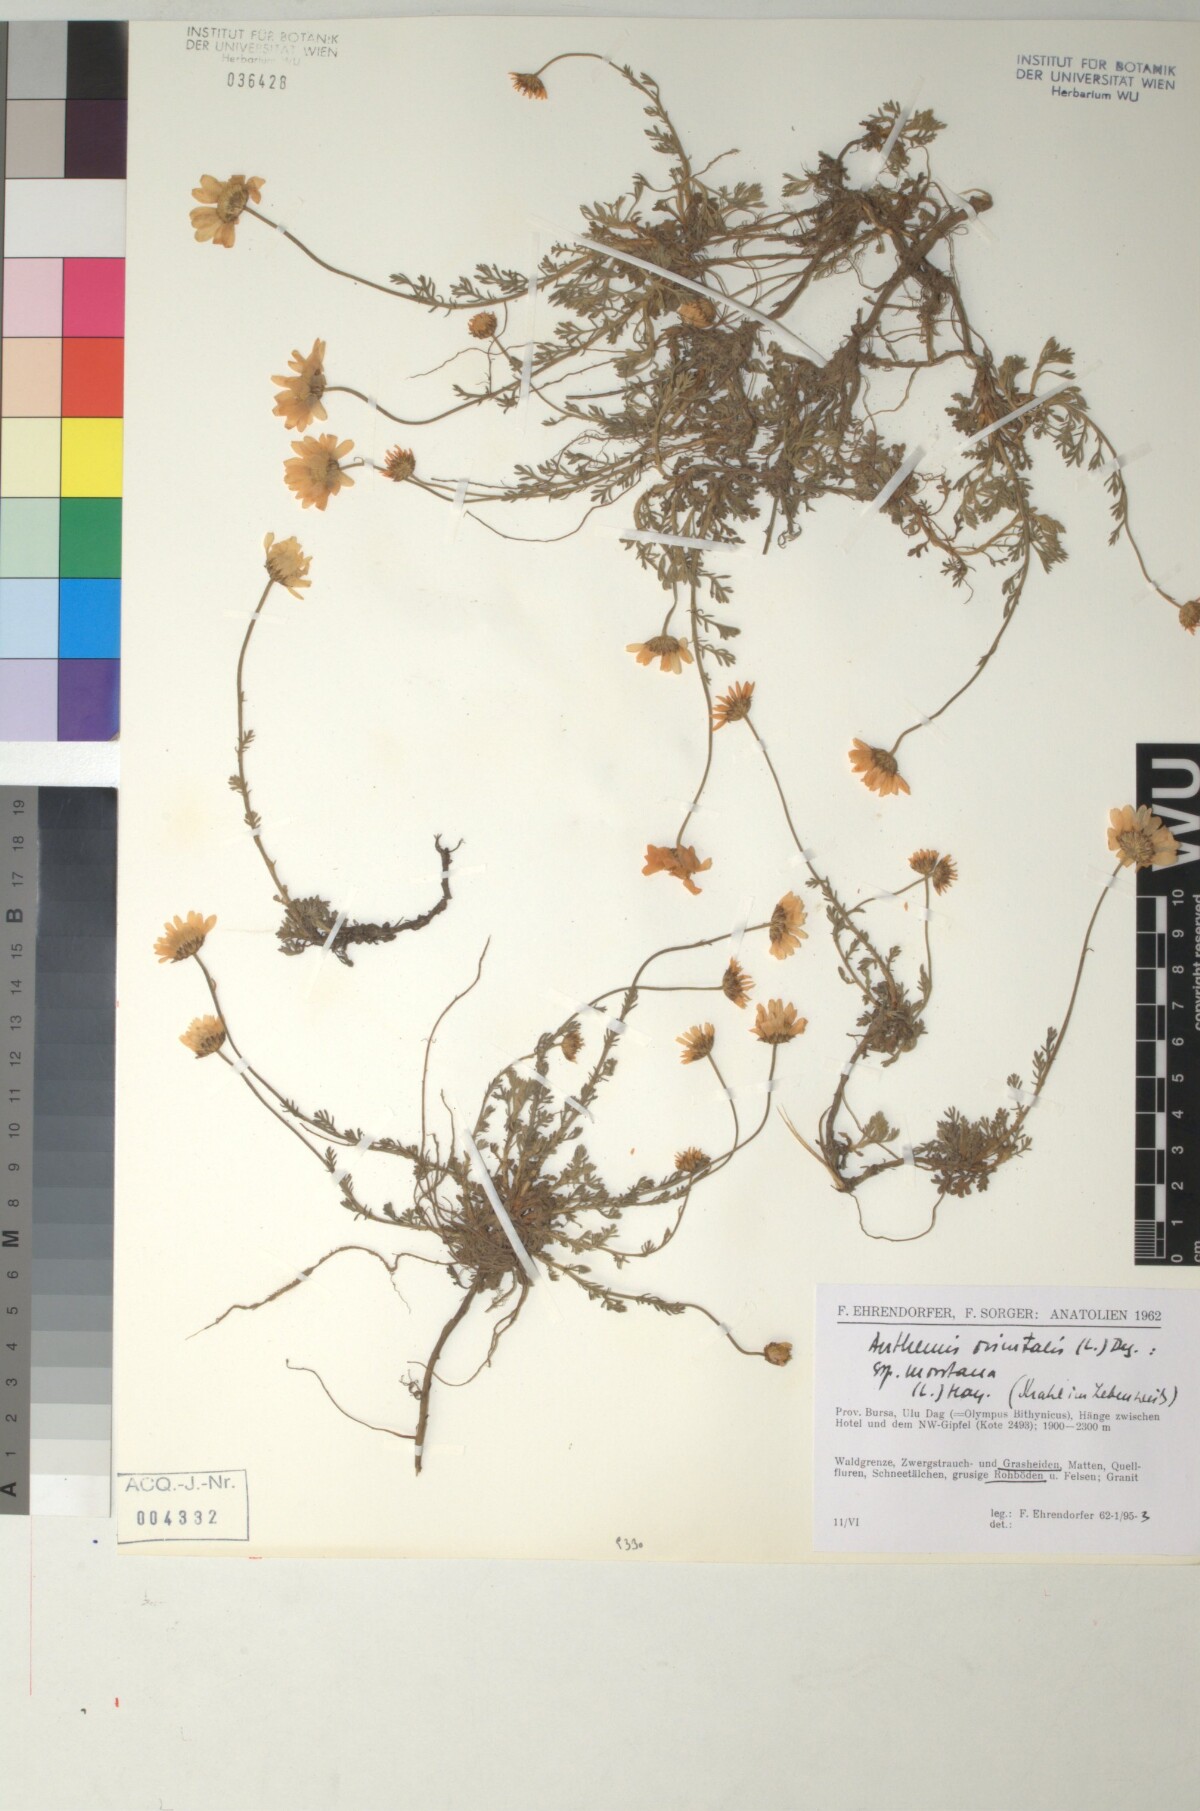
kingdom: Plantae
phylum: Tracheophyta
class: Magnoliopsida
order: Asterales
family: Asteraceae
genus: Anthemis
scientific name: Anthemis orientalis
